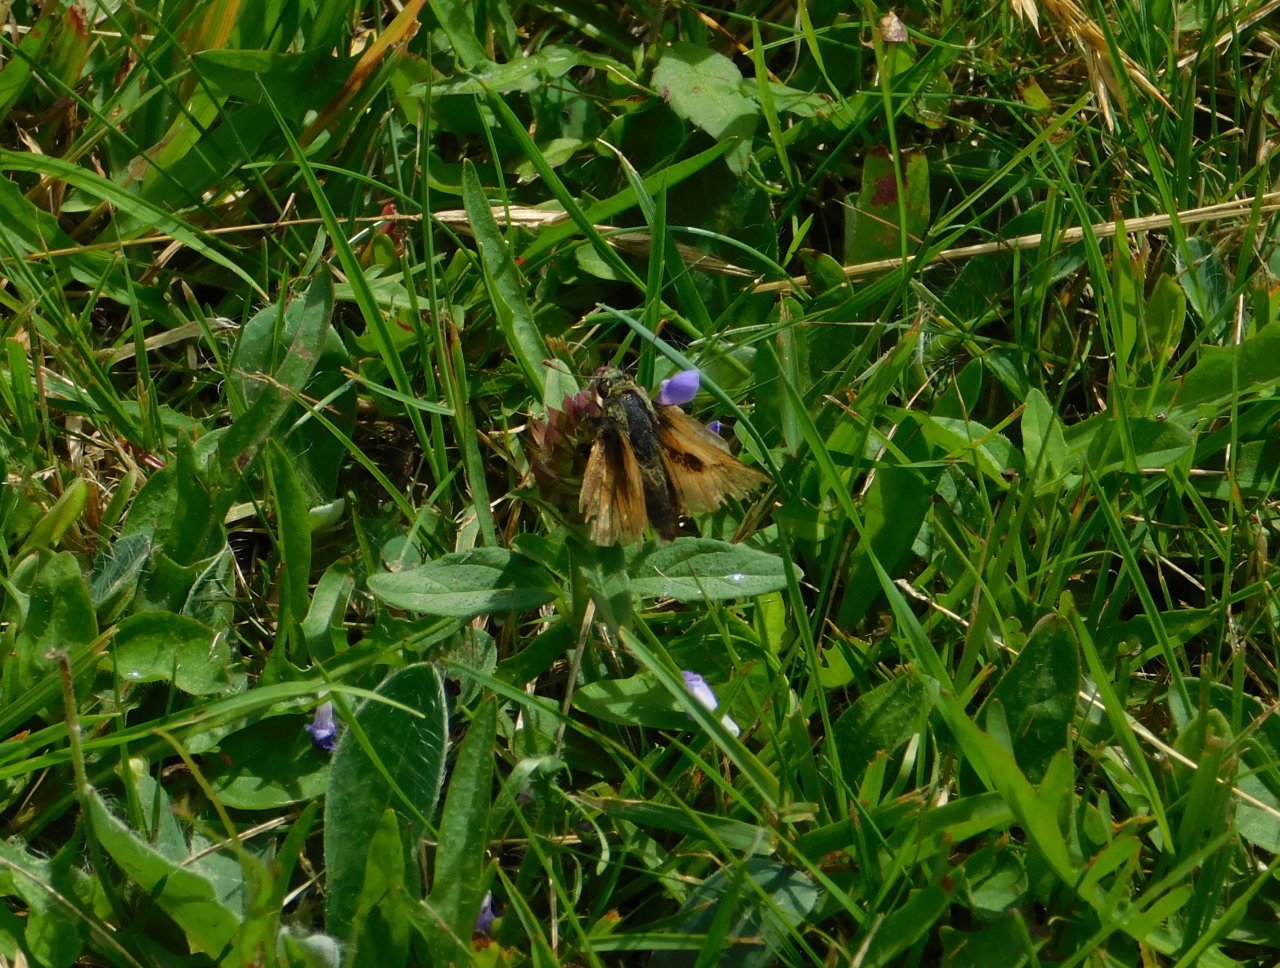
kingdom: Animalia
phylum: Arthropoda
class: Insecta
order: Lepidoptera
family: Hesperiidae
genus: Polites
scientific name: Polites
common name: Long Dash Skipper
